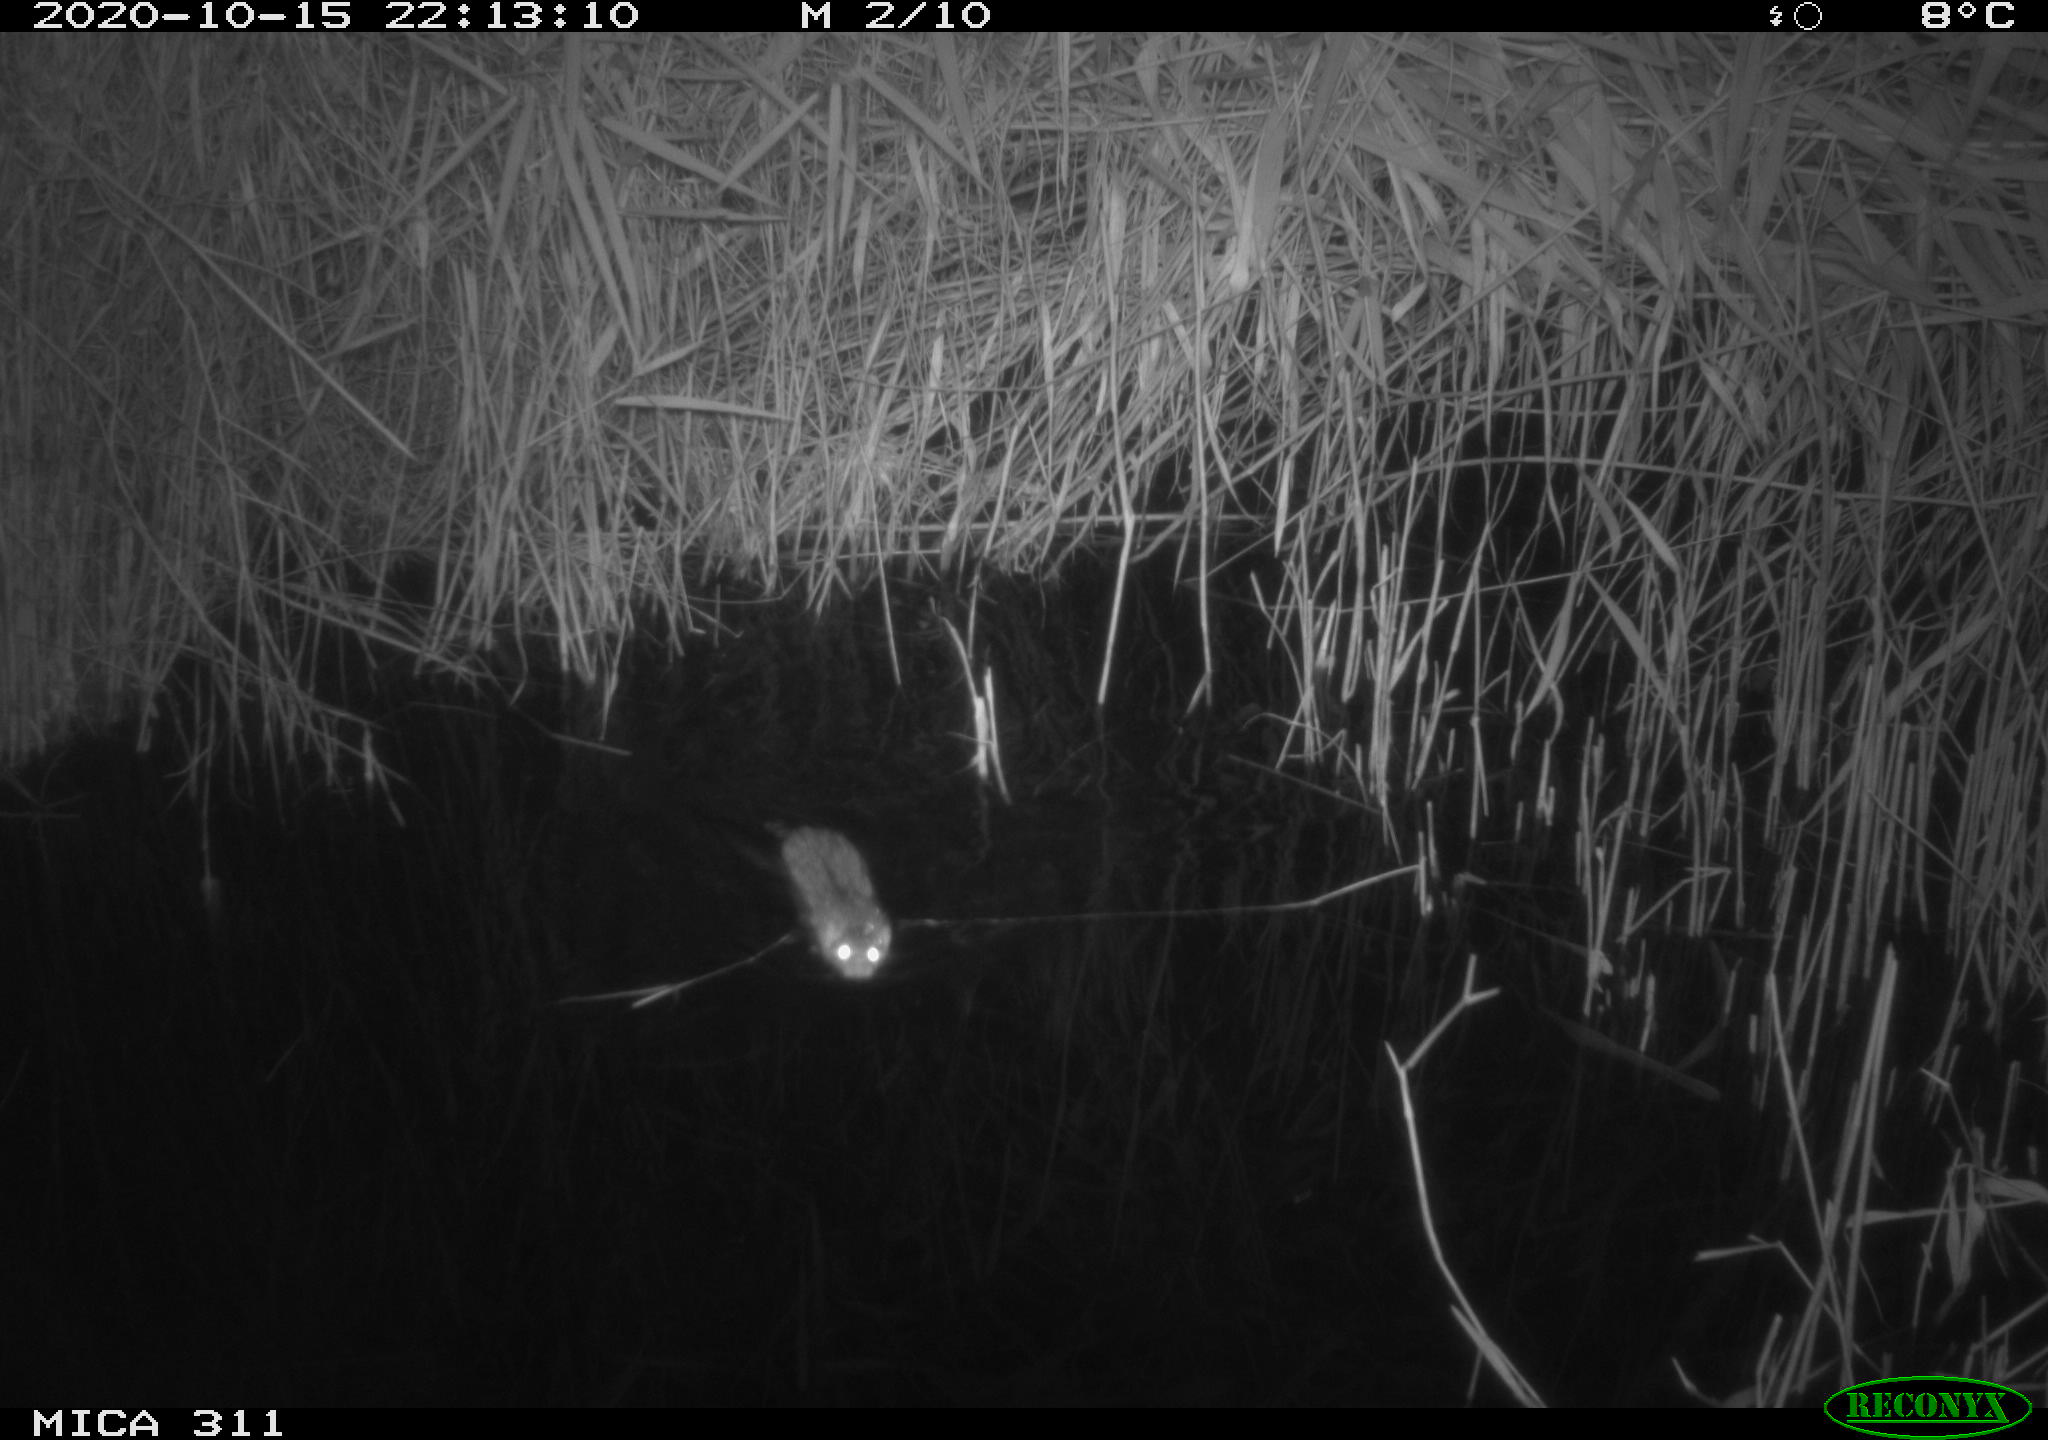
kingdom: Animalia
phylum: Chordata
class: Mammalia
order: Rodentia
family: Cricetidae
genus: Ondatra
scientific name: Ondatra zibethicus
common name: Muskrat
